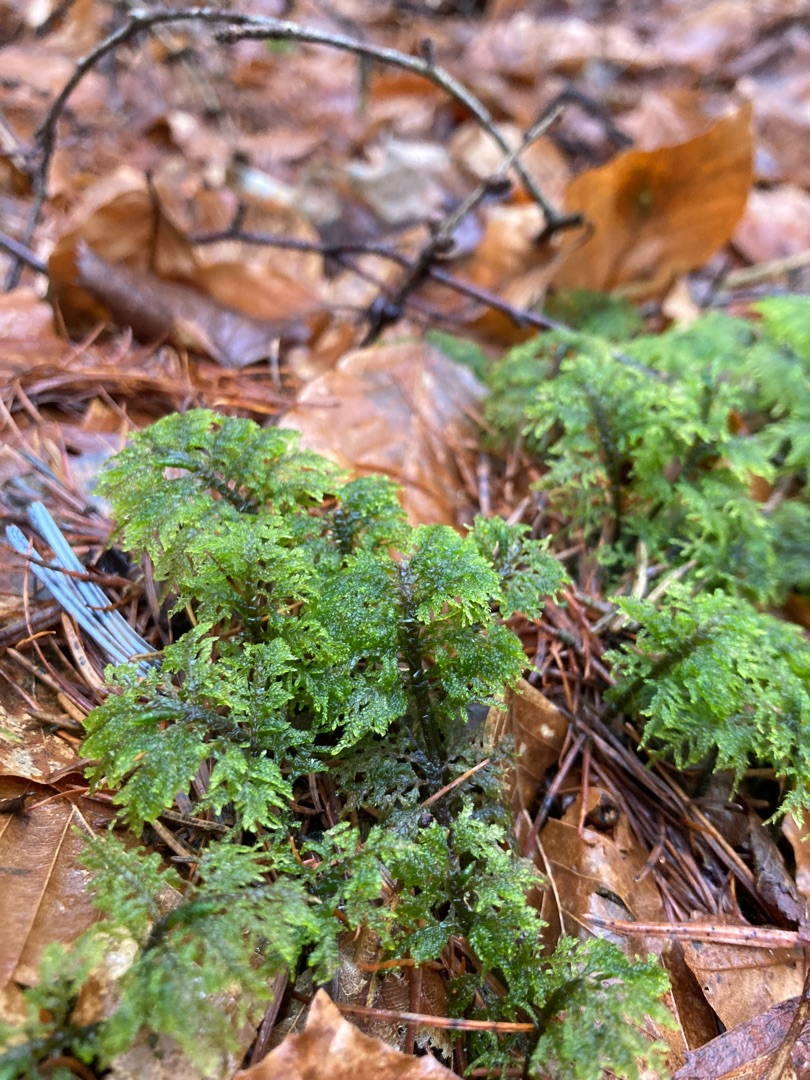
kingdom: Plantae
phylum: Bryophyta
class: Bryopsida
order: Hypnales
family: Hylocomiaceae
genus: Hylocomium
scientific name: Hylocomium splendens
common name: Almindelig etagemos
